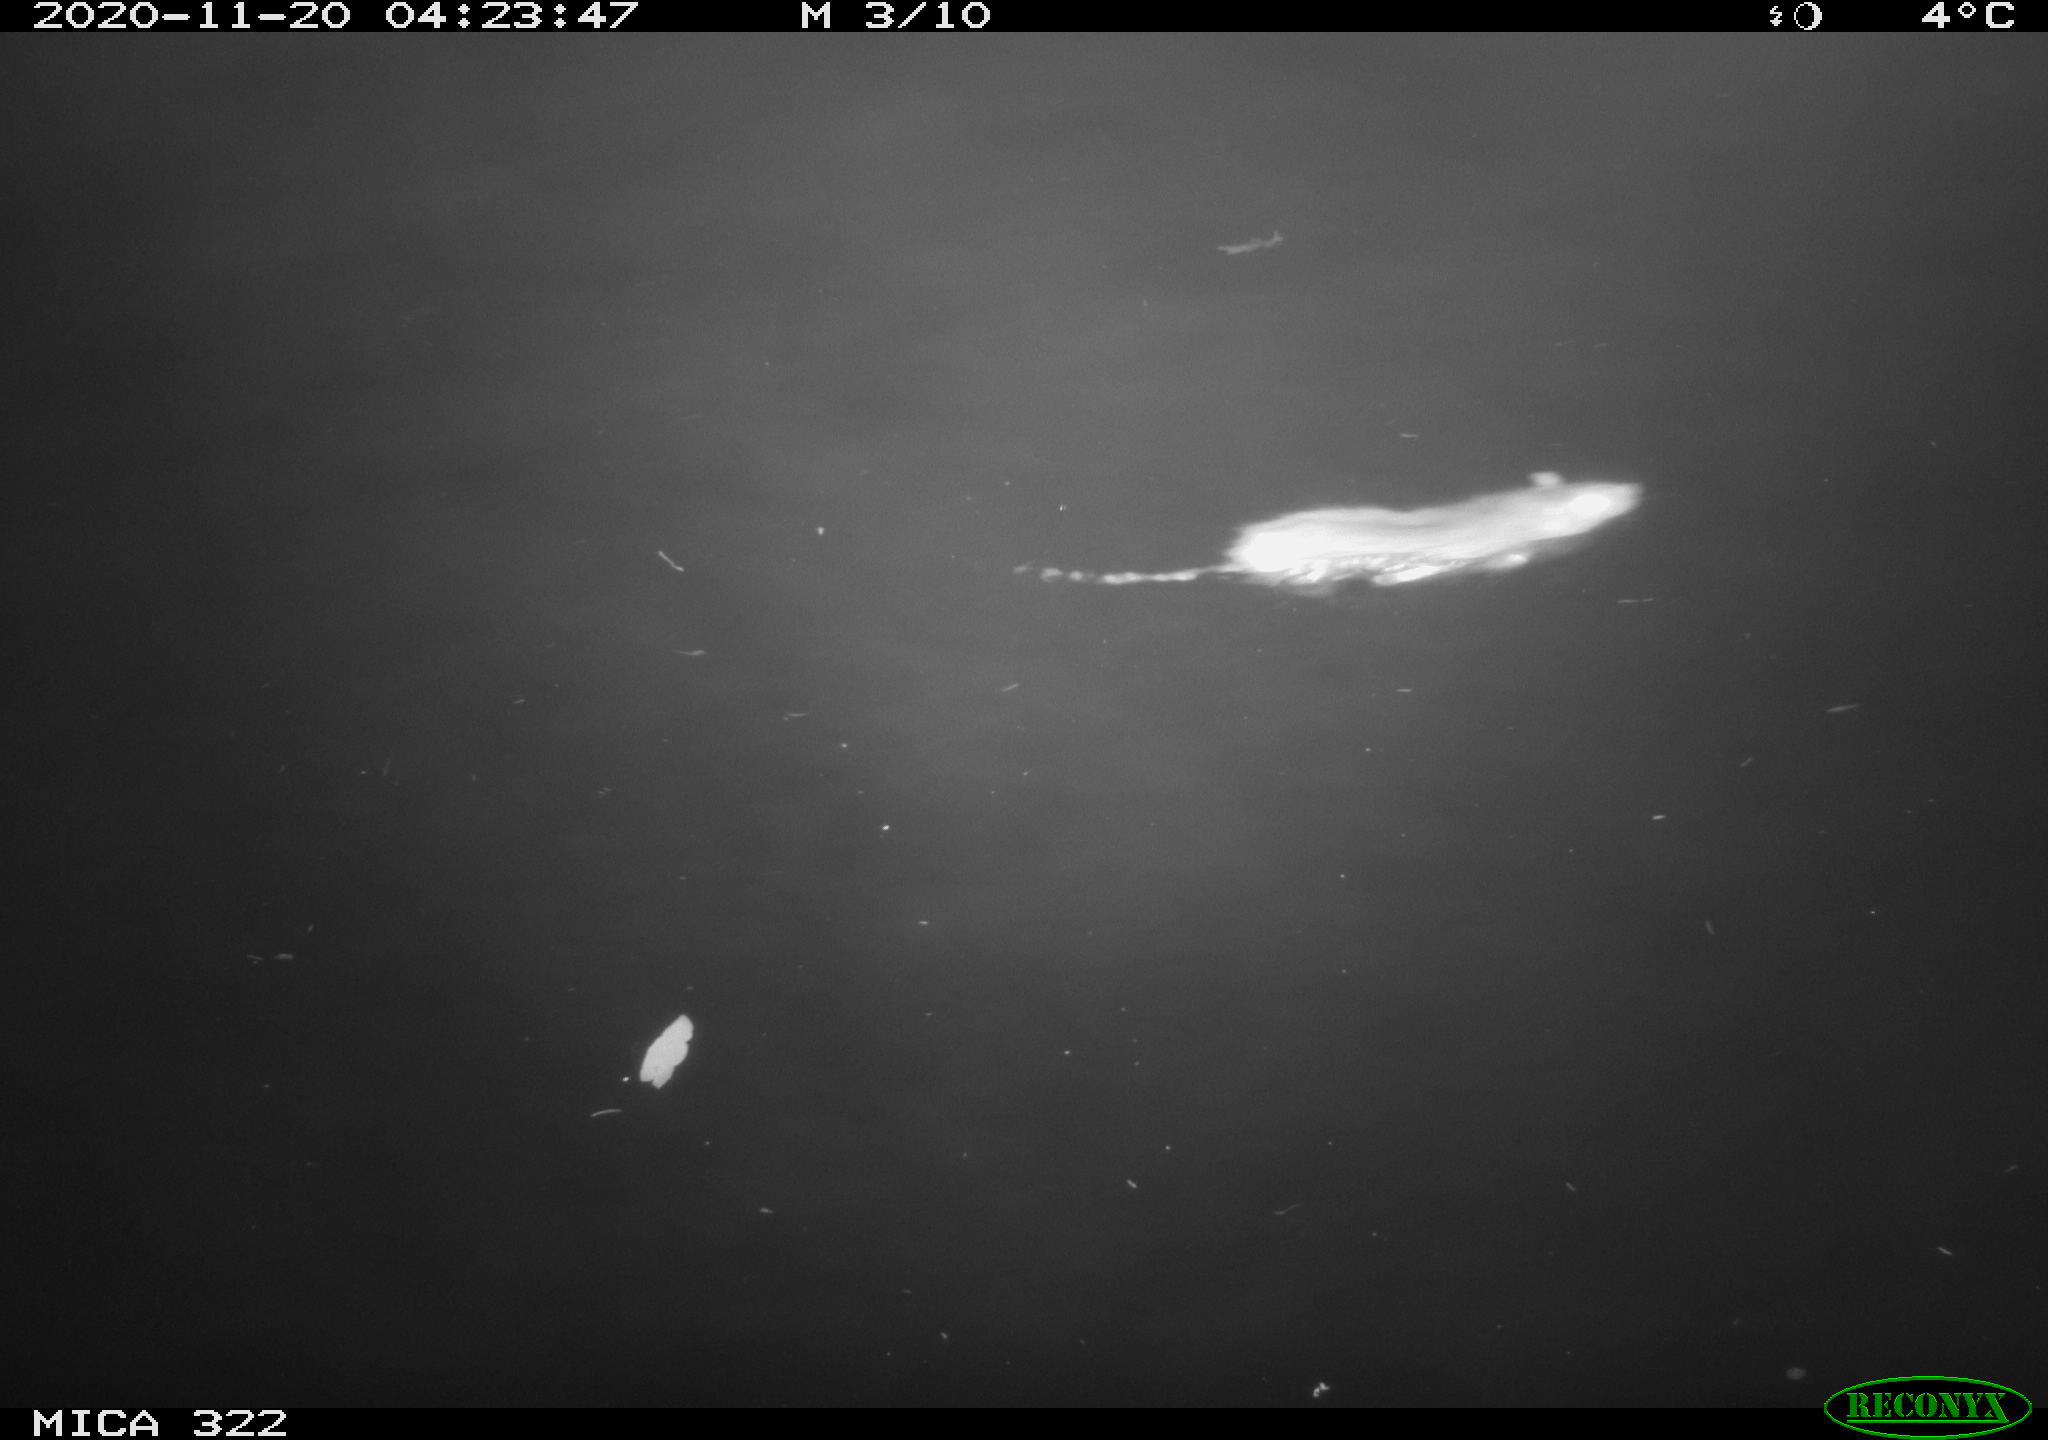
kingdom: Animalia
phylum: Chordata
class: Mammalia
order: Rodentia
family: Muridae
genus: Rattus
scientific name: Rattus norvegicus
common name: Brown rat
